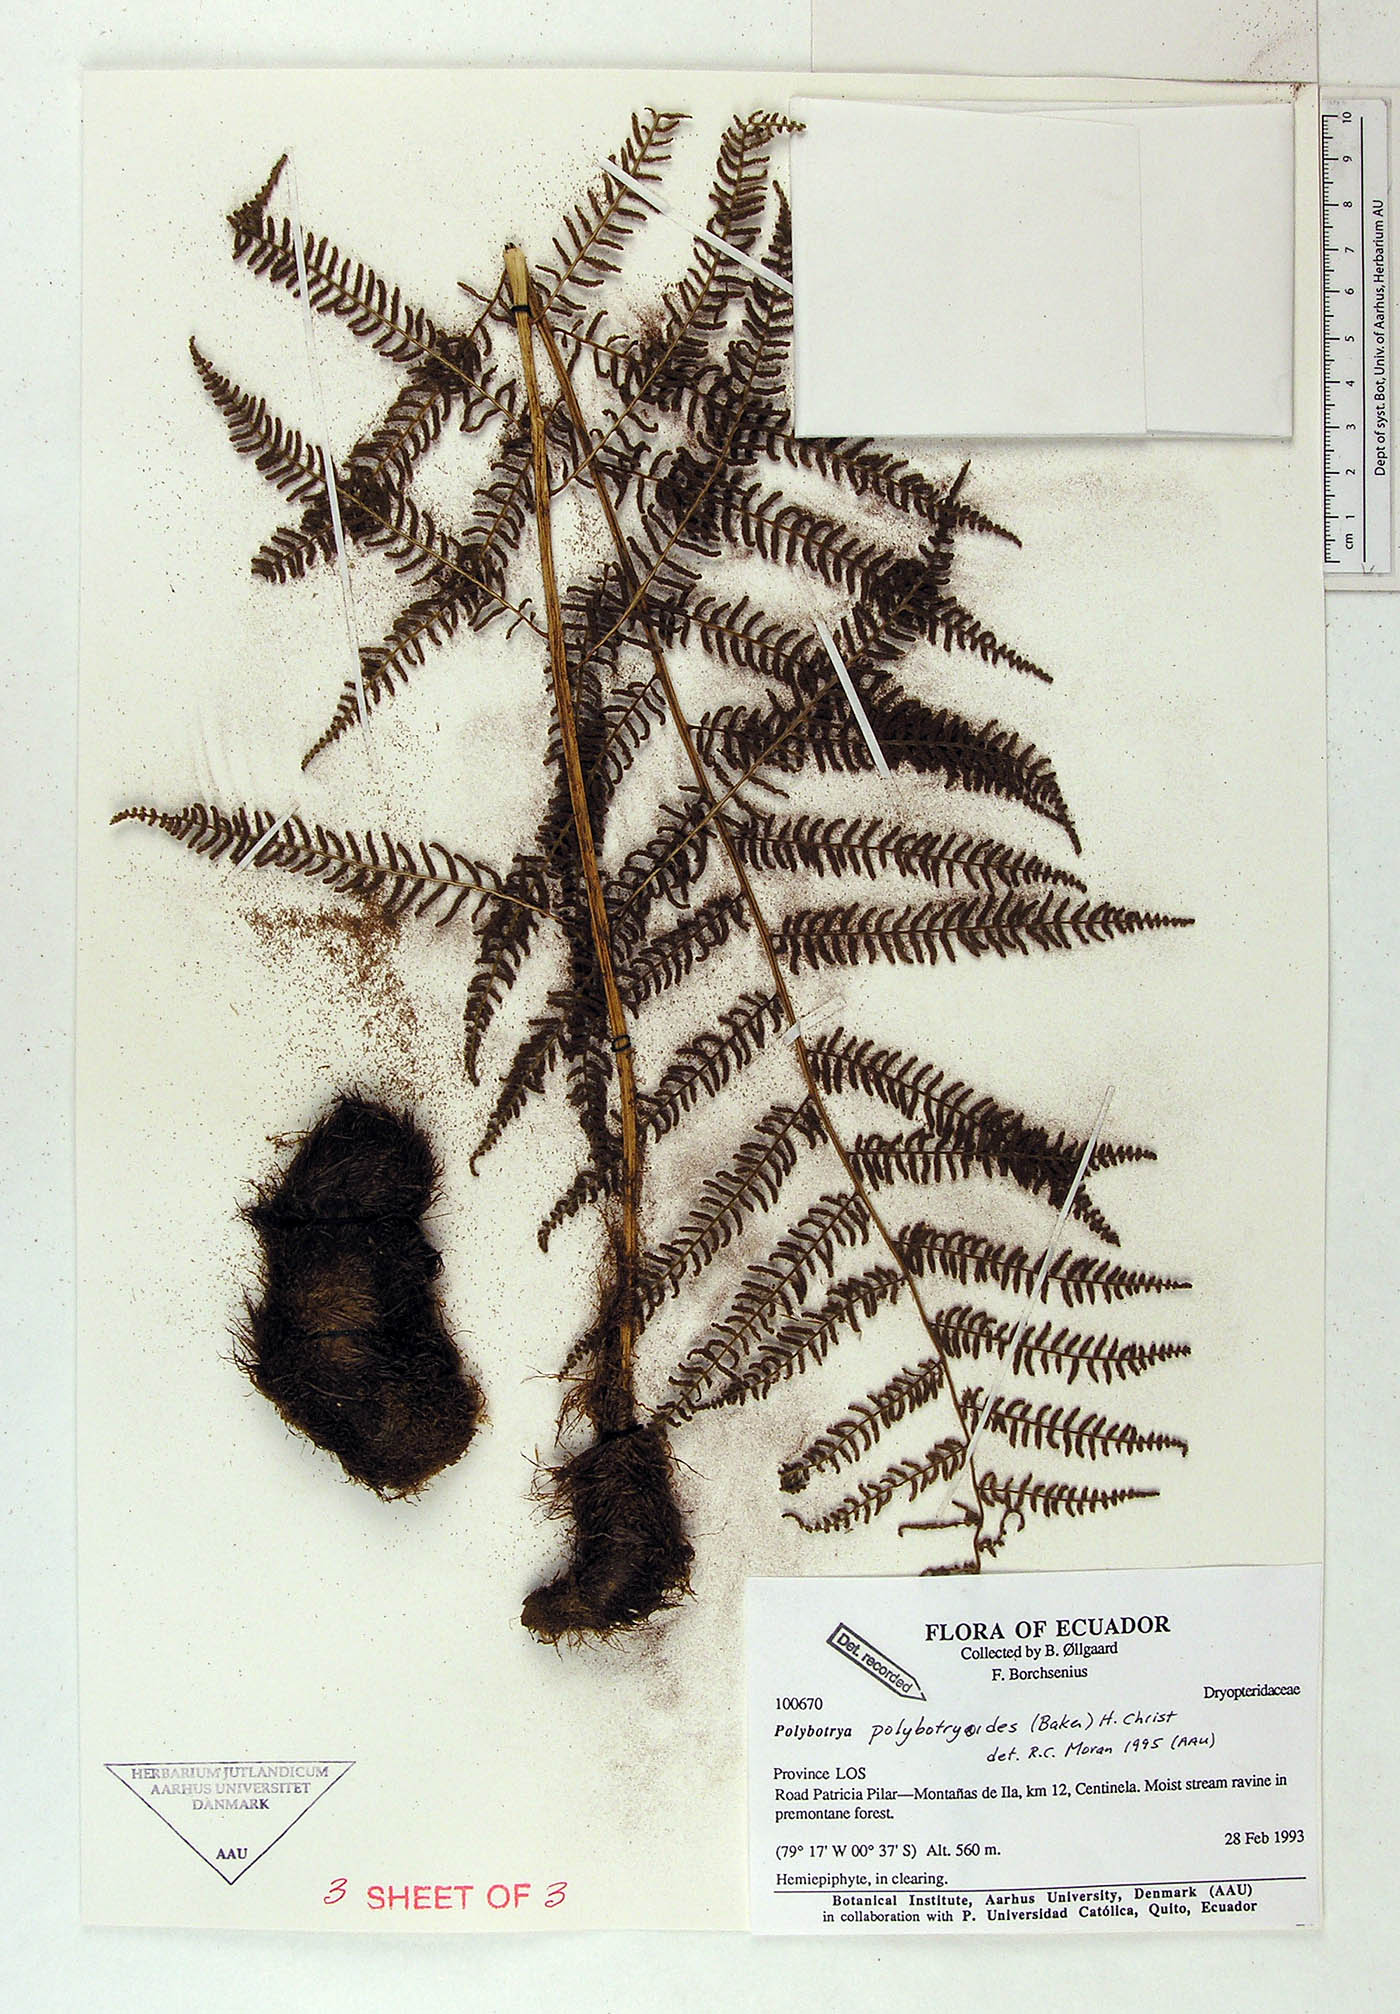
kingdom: Plantae
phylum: Tracheophyta
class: Polypodiopsida
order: Polypodiales
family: Dryopteridaceae
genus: Polybotrya
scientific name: Polybotrya polybotryoides
